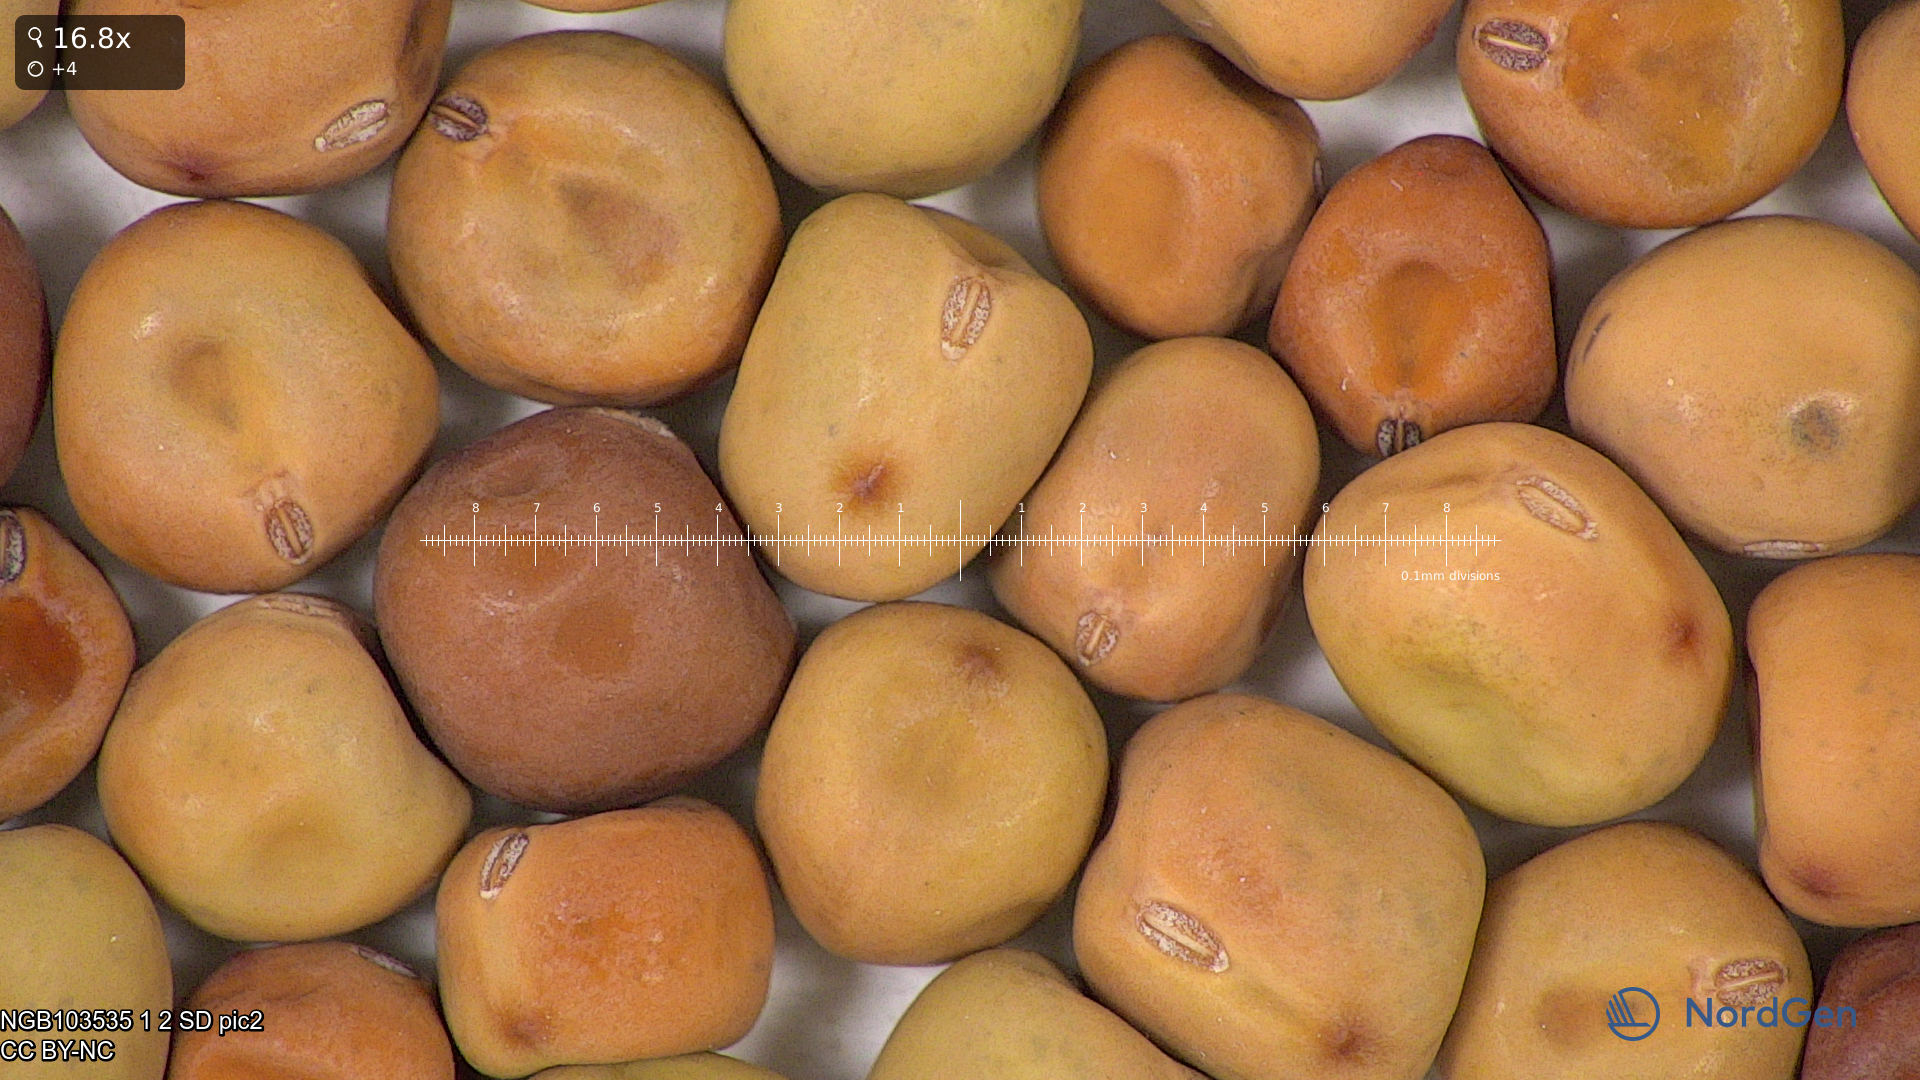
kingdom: Plantae
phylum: Tracheophyta
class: Magnoliopsida
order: Fabales
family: Fabaceae
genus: Lathyrus
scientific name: Lathyrus oleraceus
